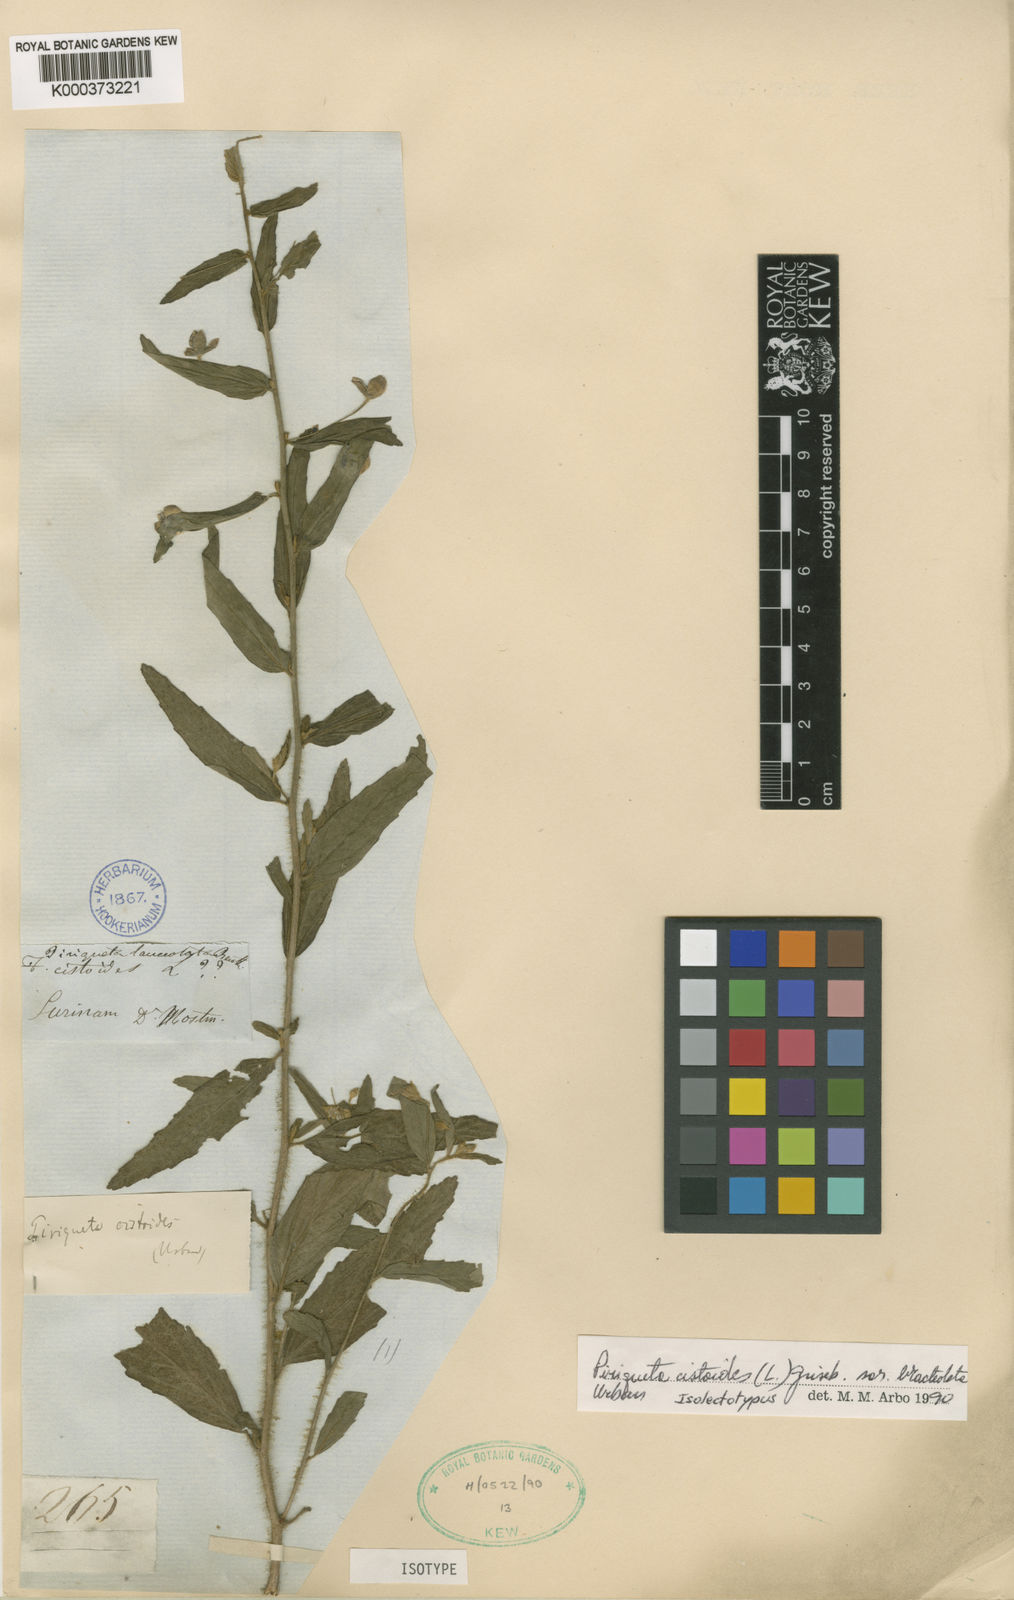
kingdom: Plantae
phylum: Tracheophyta
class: Magnoliopsida
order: Malpighiales
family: Turneraceae
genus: Piriqueta
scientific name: Piriqueta cistoides
